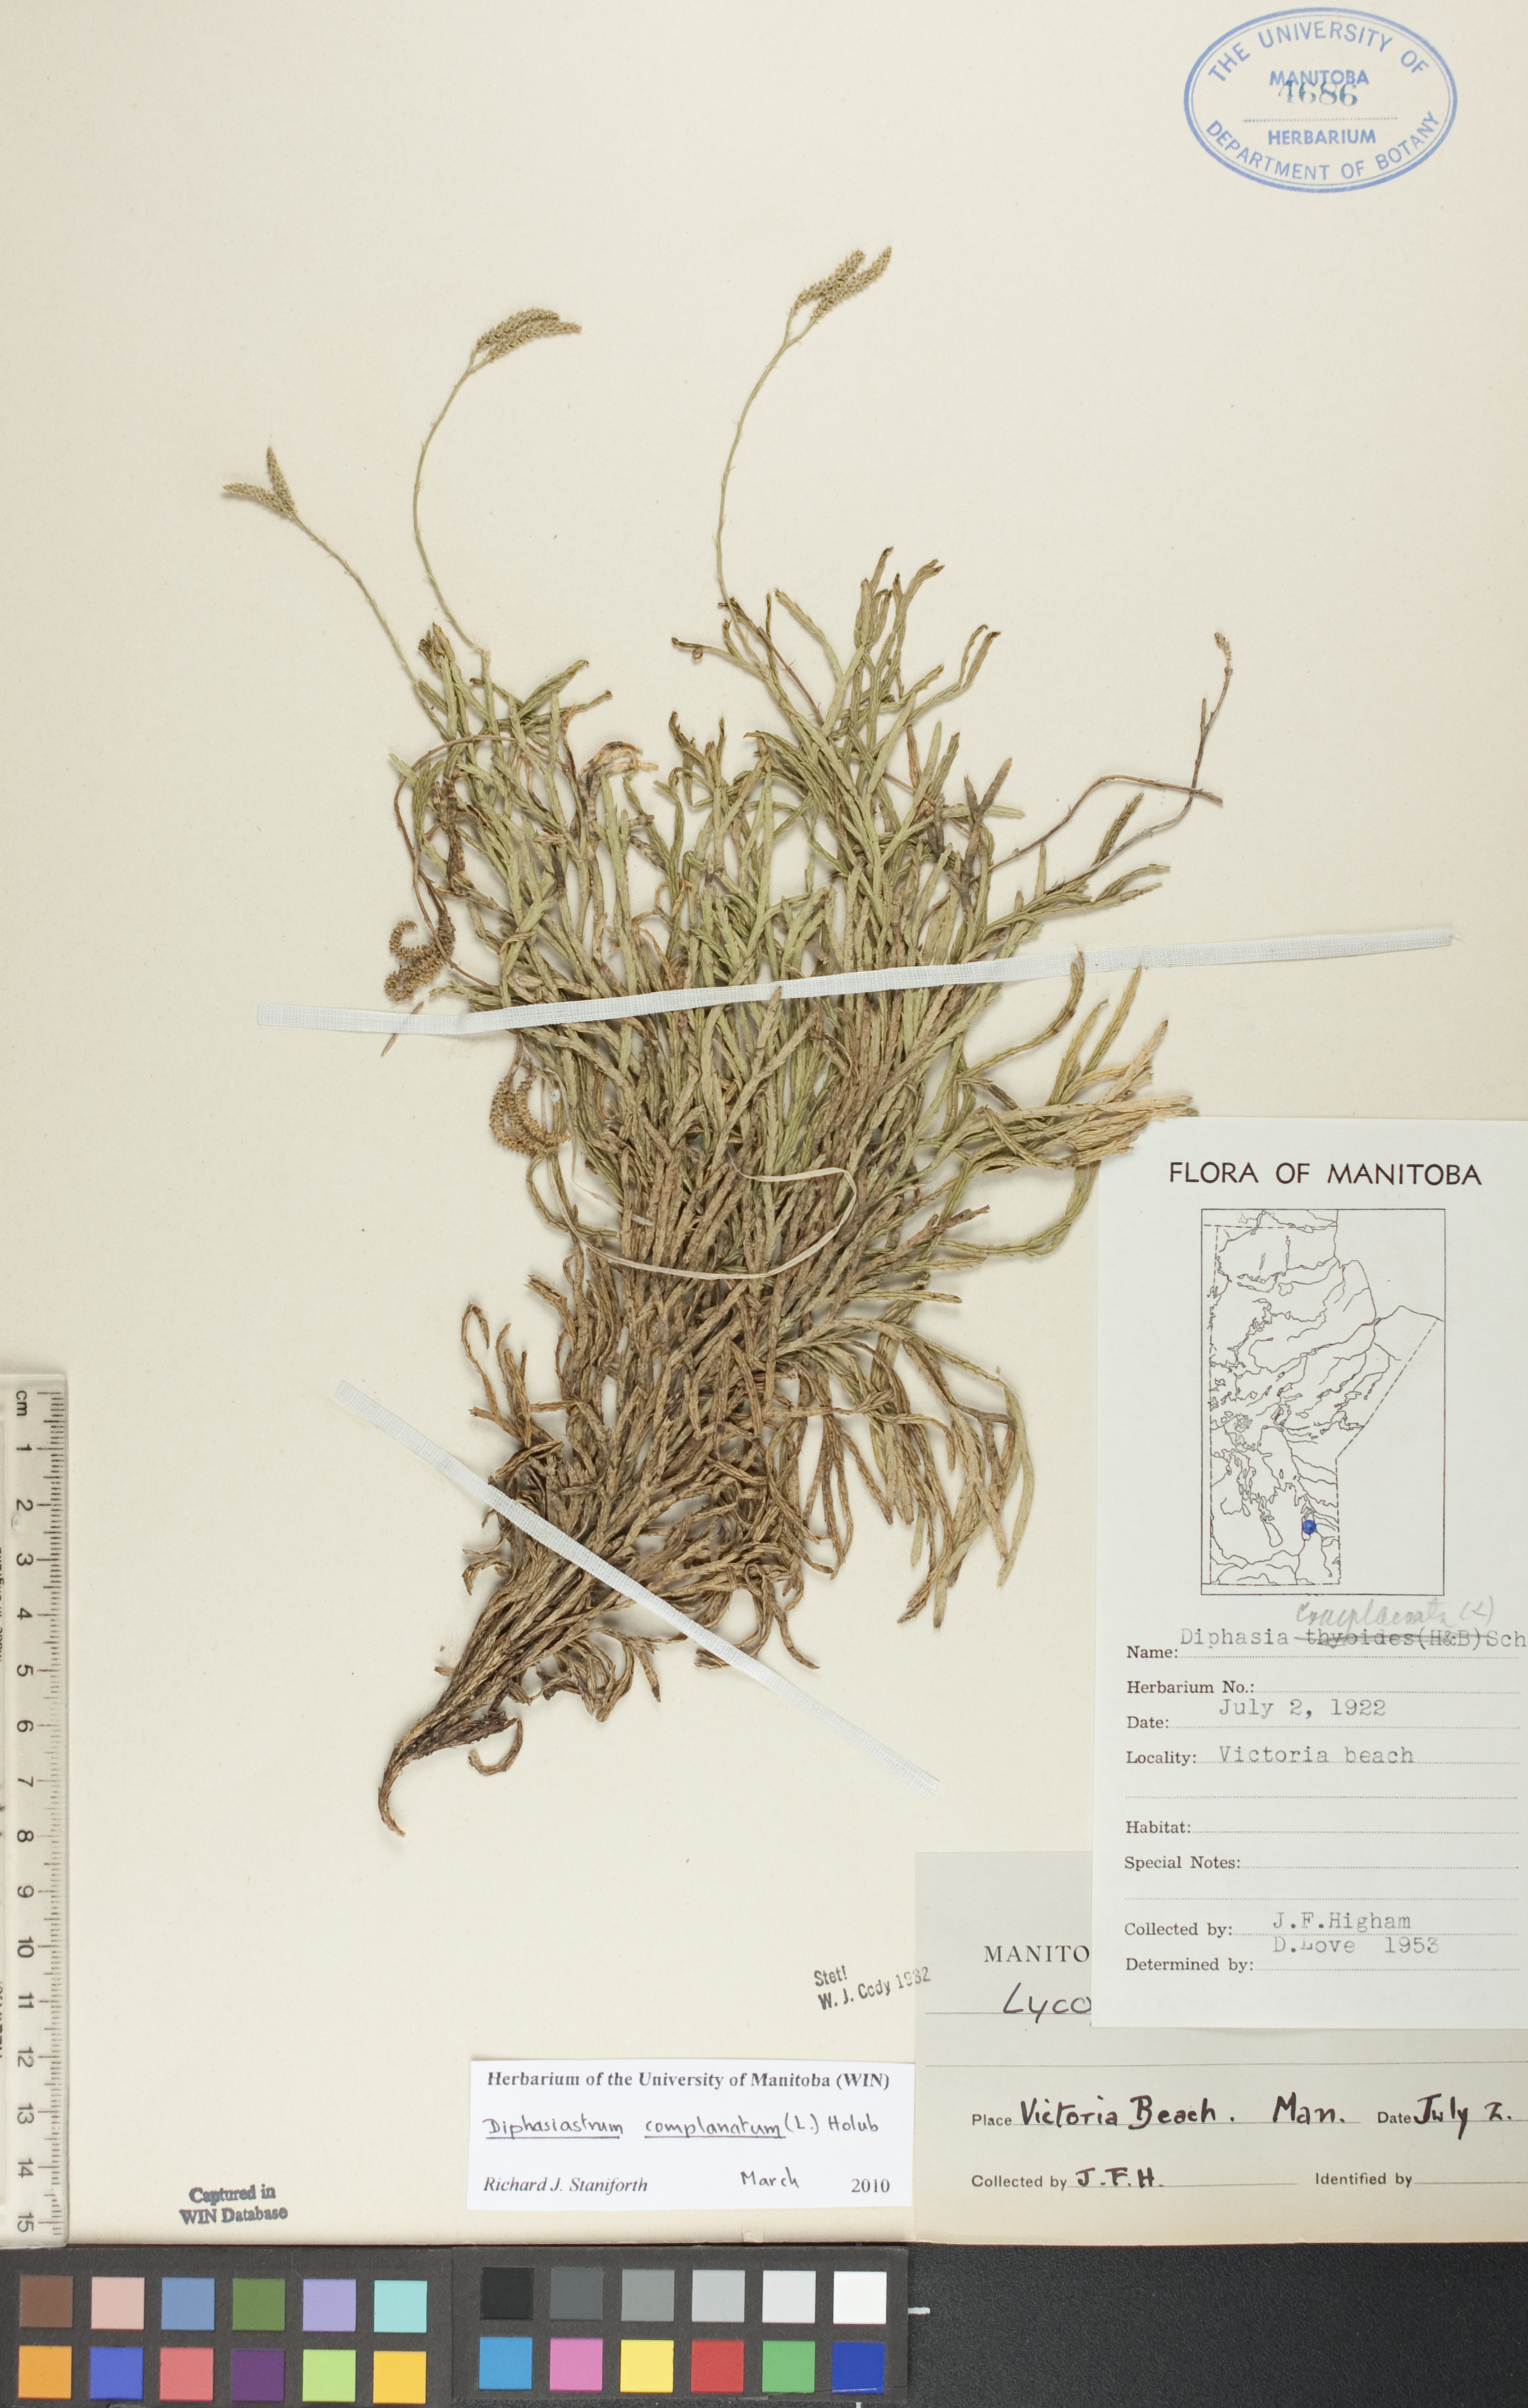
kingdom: Plantae
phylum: Tracheophyta
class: Lycopodiopsida
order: Lycopodiales
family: Lycopodiaceae
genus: Diphasiastrum
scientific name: Diphasiastrum complanatum
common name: Northern running-pine
